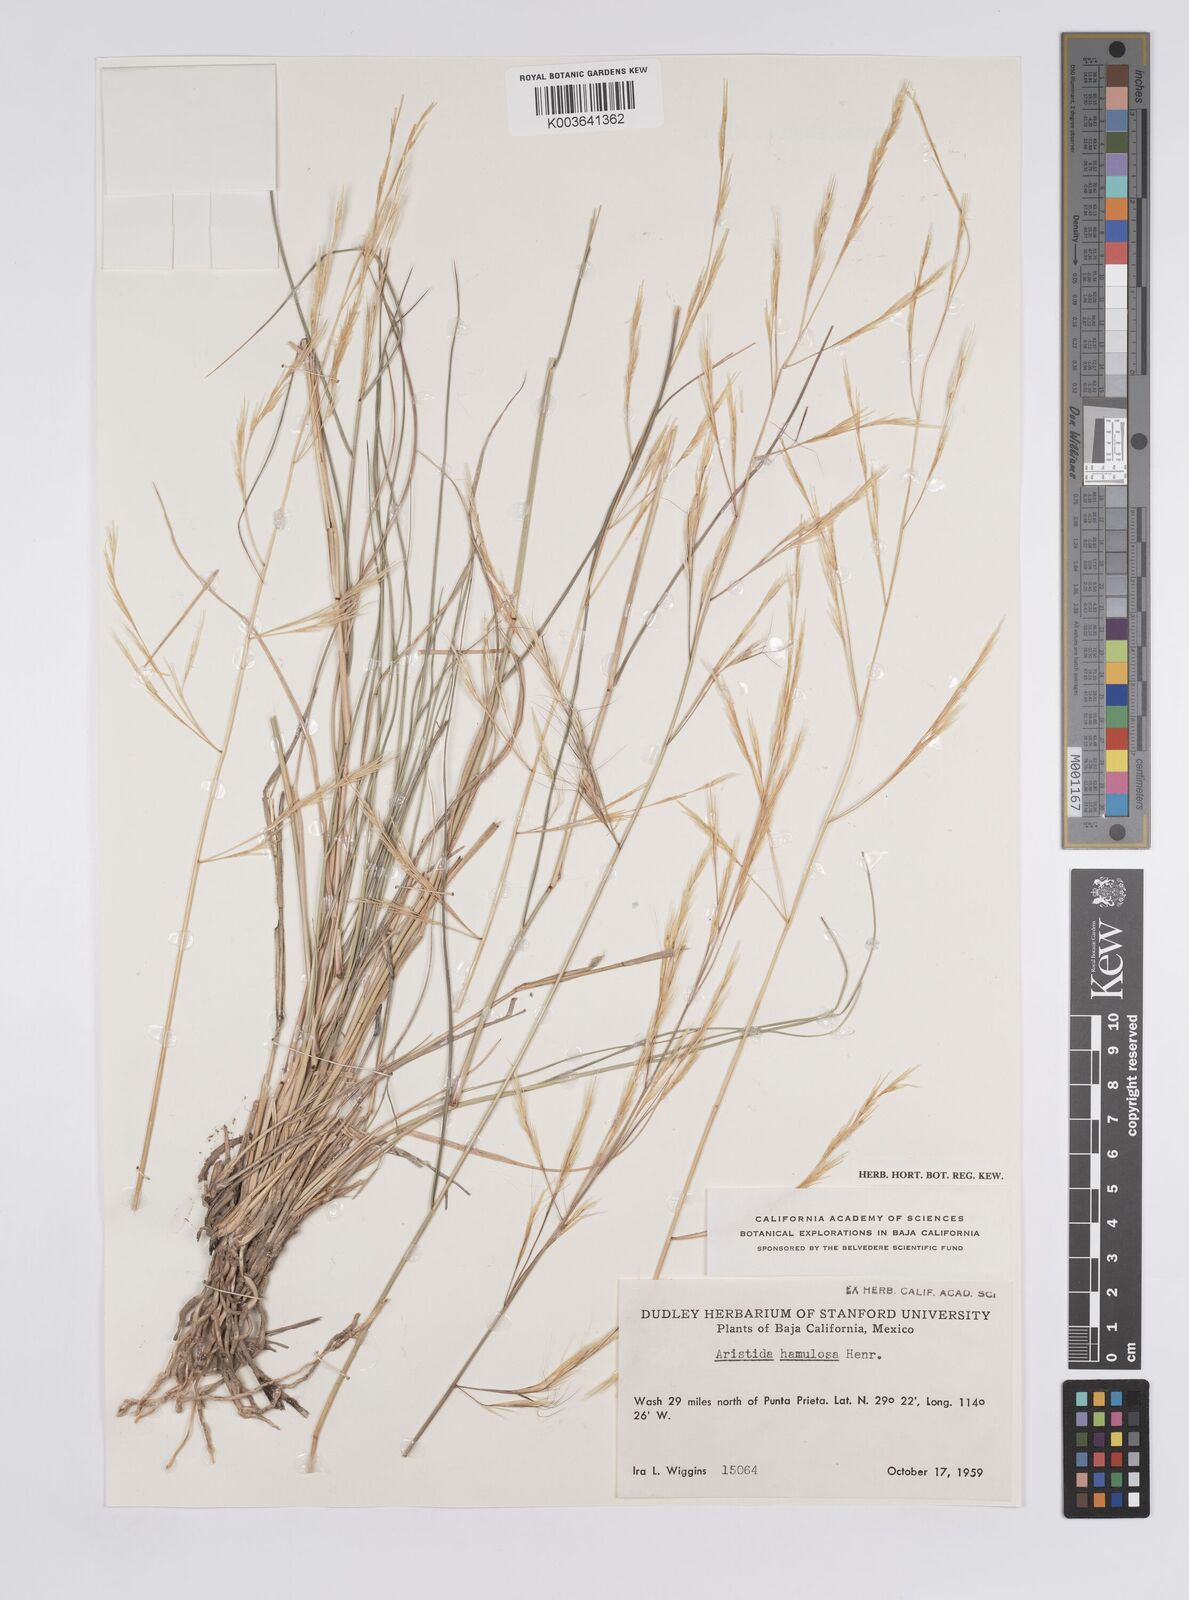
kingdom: Plantae
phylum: Tracheophyta
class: Liliopsida
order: Poales
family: Poaceae
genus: Aristida
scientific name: Aristida hamulosa
